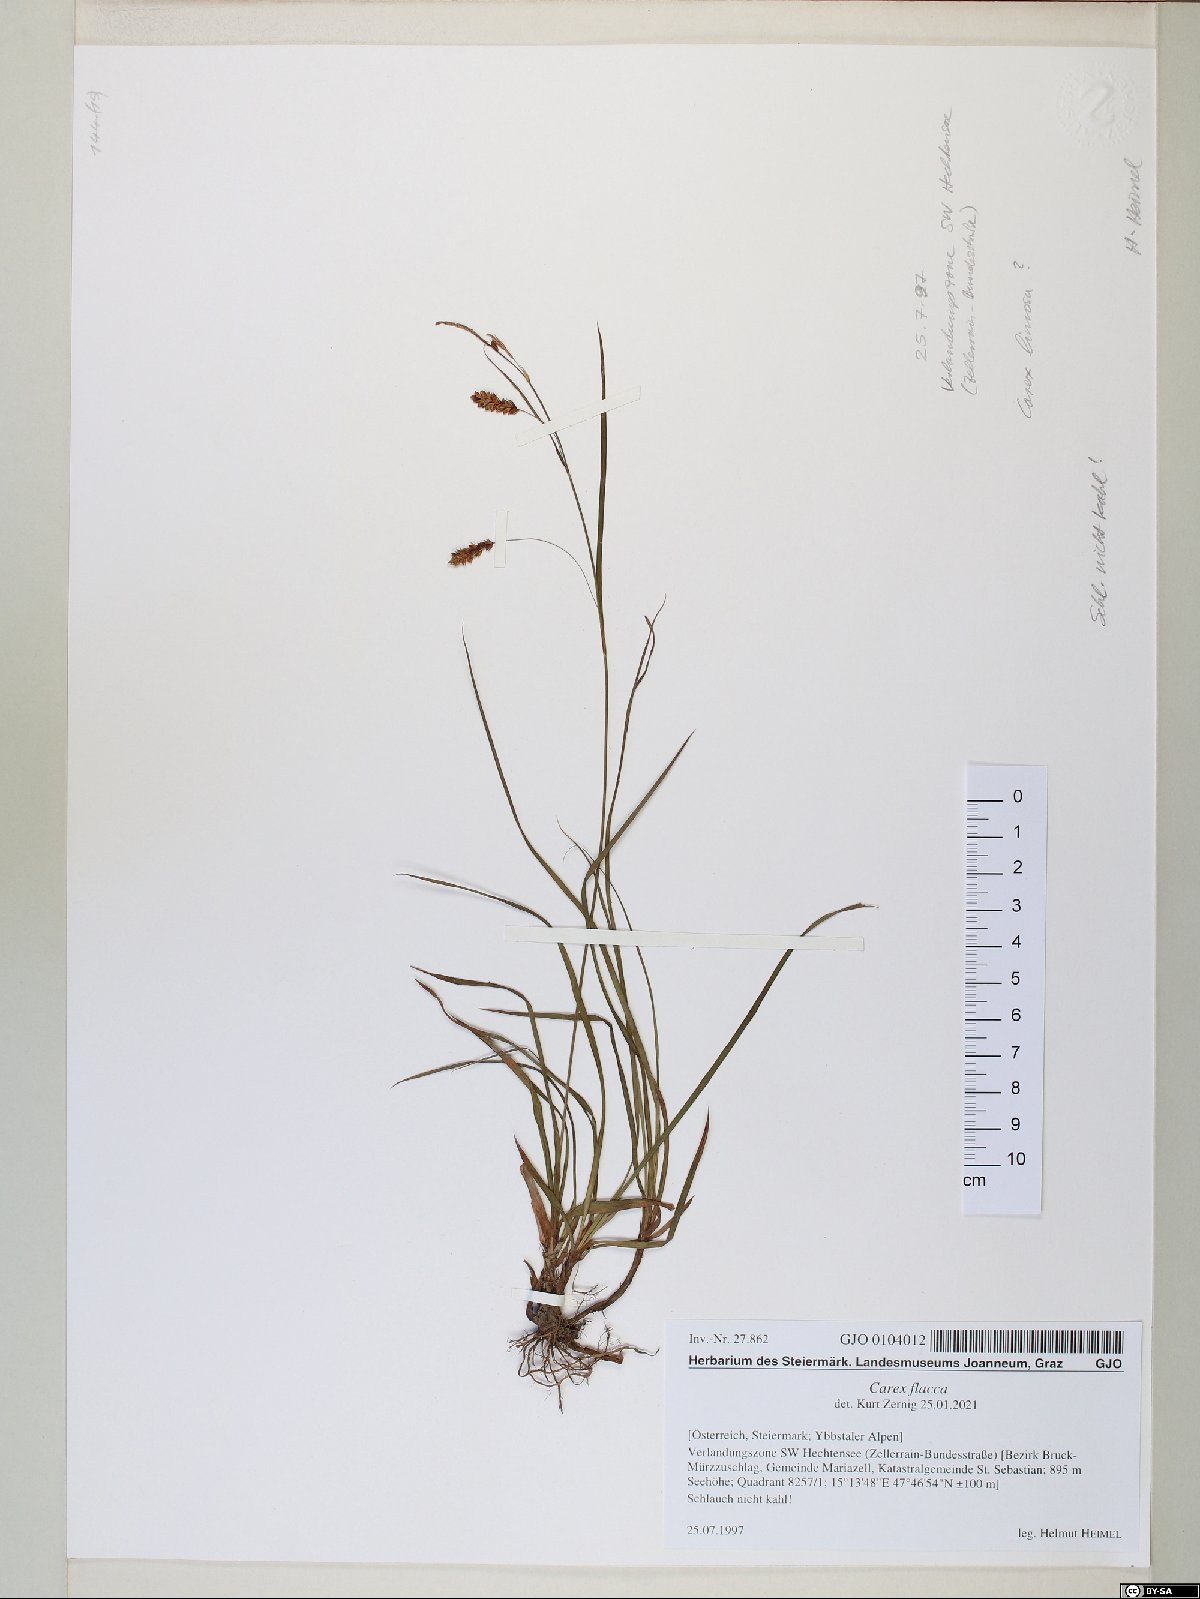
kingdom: Plantae
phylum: Tracheophyta
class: Liliopsida
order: Poales
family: Cyperaceae
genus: Carex
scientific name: Carex flacca
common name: Glaucous sedge
